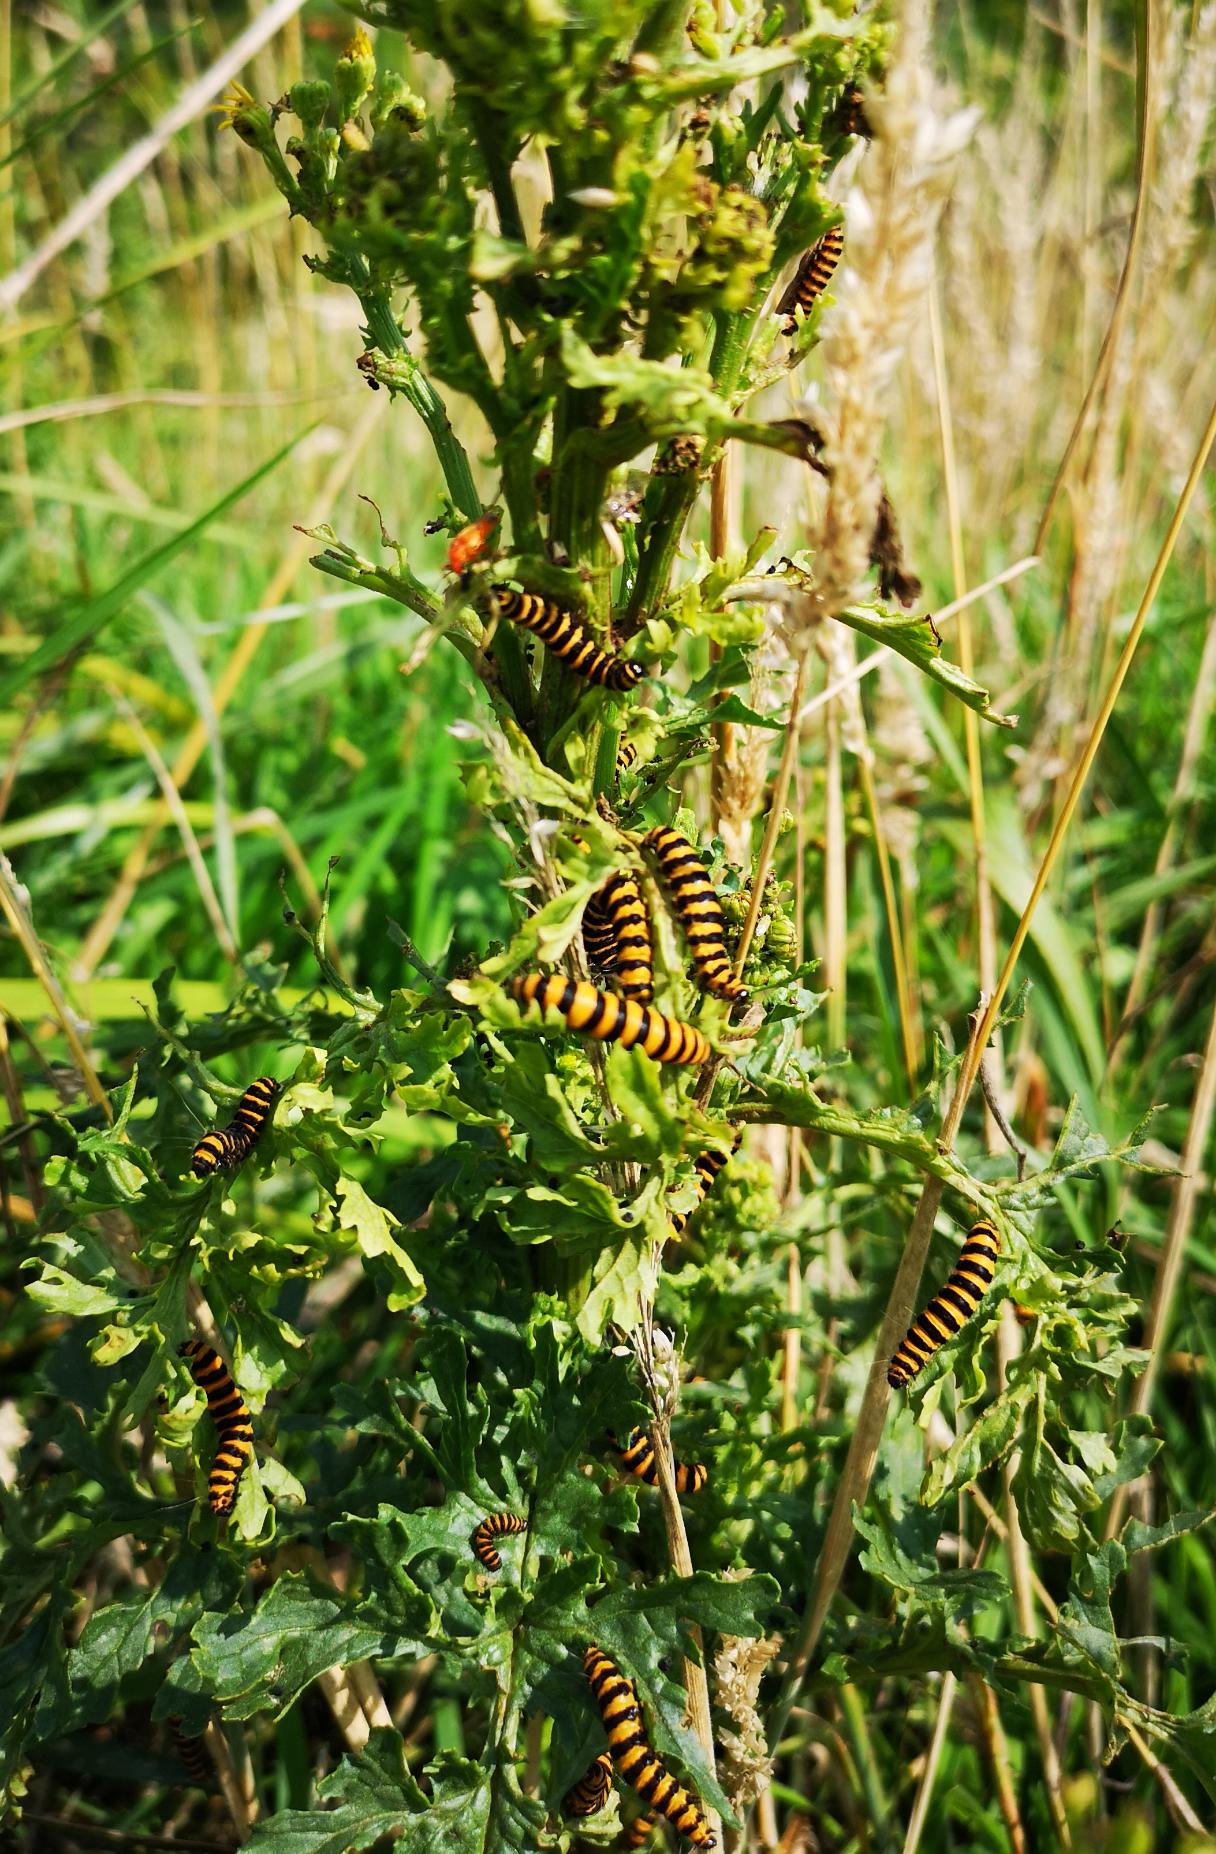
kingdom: Animalia
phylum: Arthropoda
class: Insecta
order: Lepidoptera
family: Erebidae
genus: Tyria
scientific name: Tyria jacobaeae
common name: Blodplet
